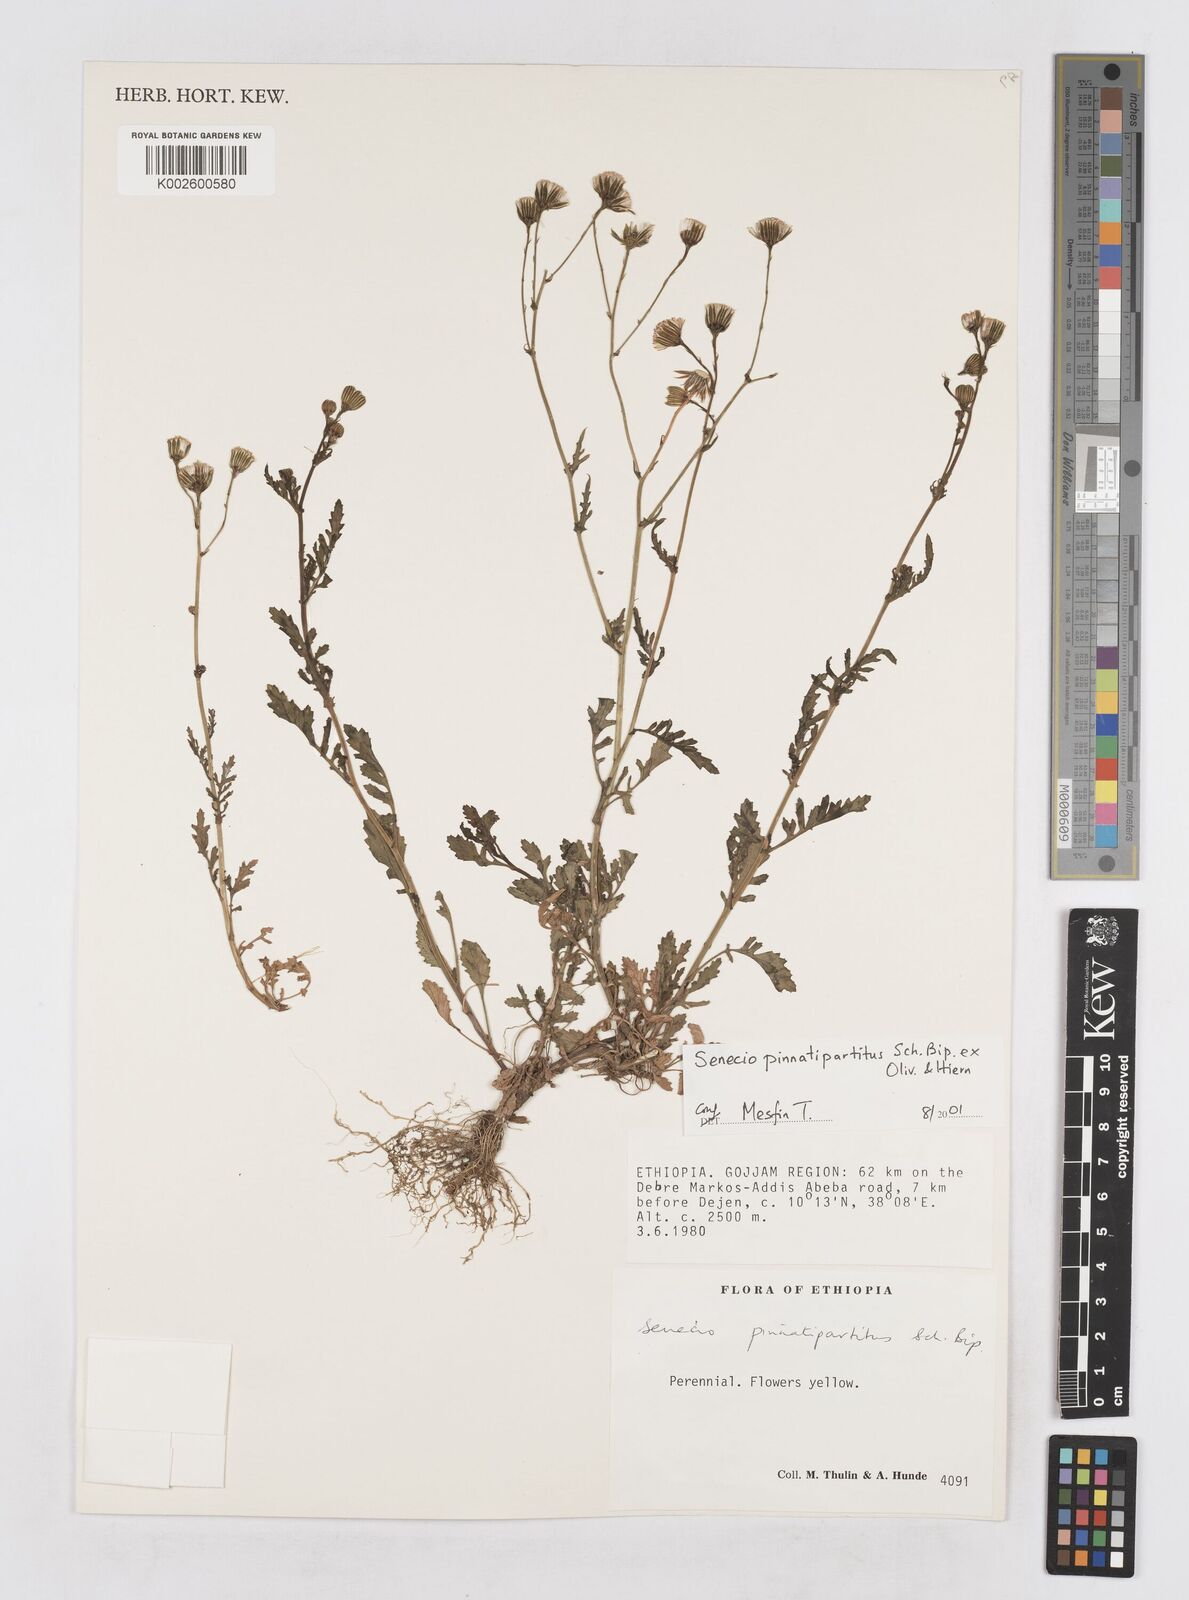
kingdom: Plantae
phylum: Tracheophyta
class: Magnoliopsida
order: Asterales
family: Asteraceae
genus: Senecio
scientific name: Senecio pinnatipartitus
